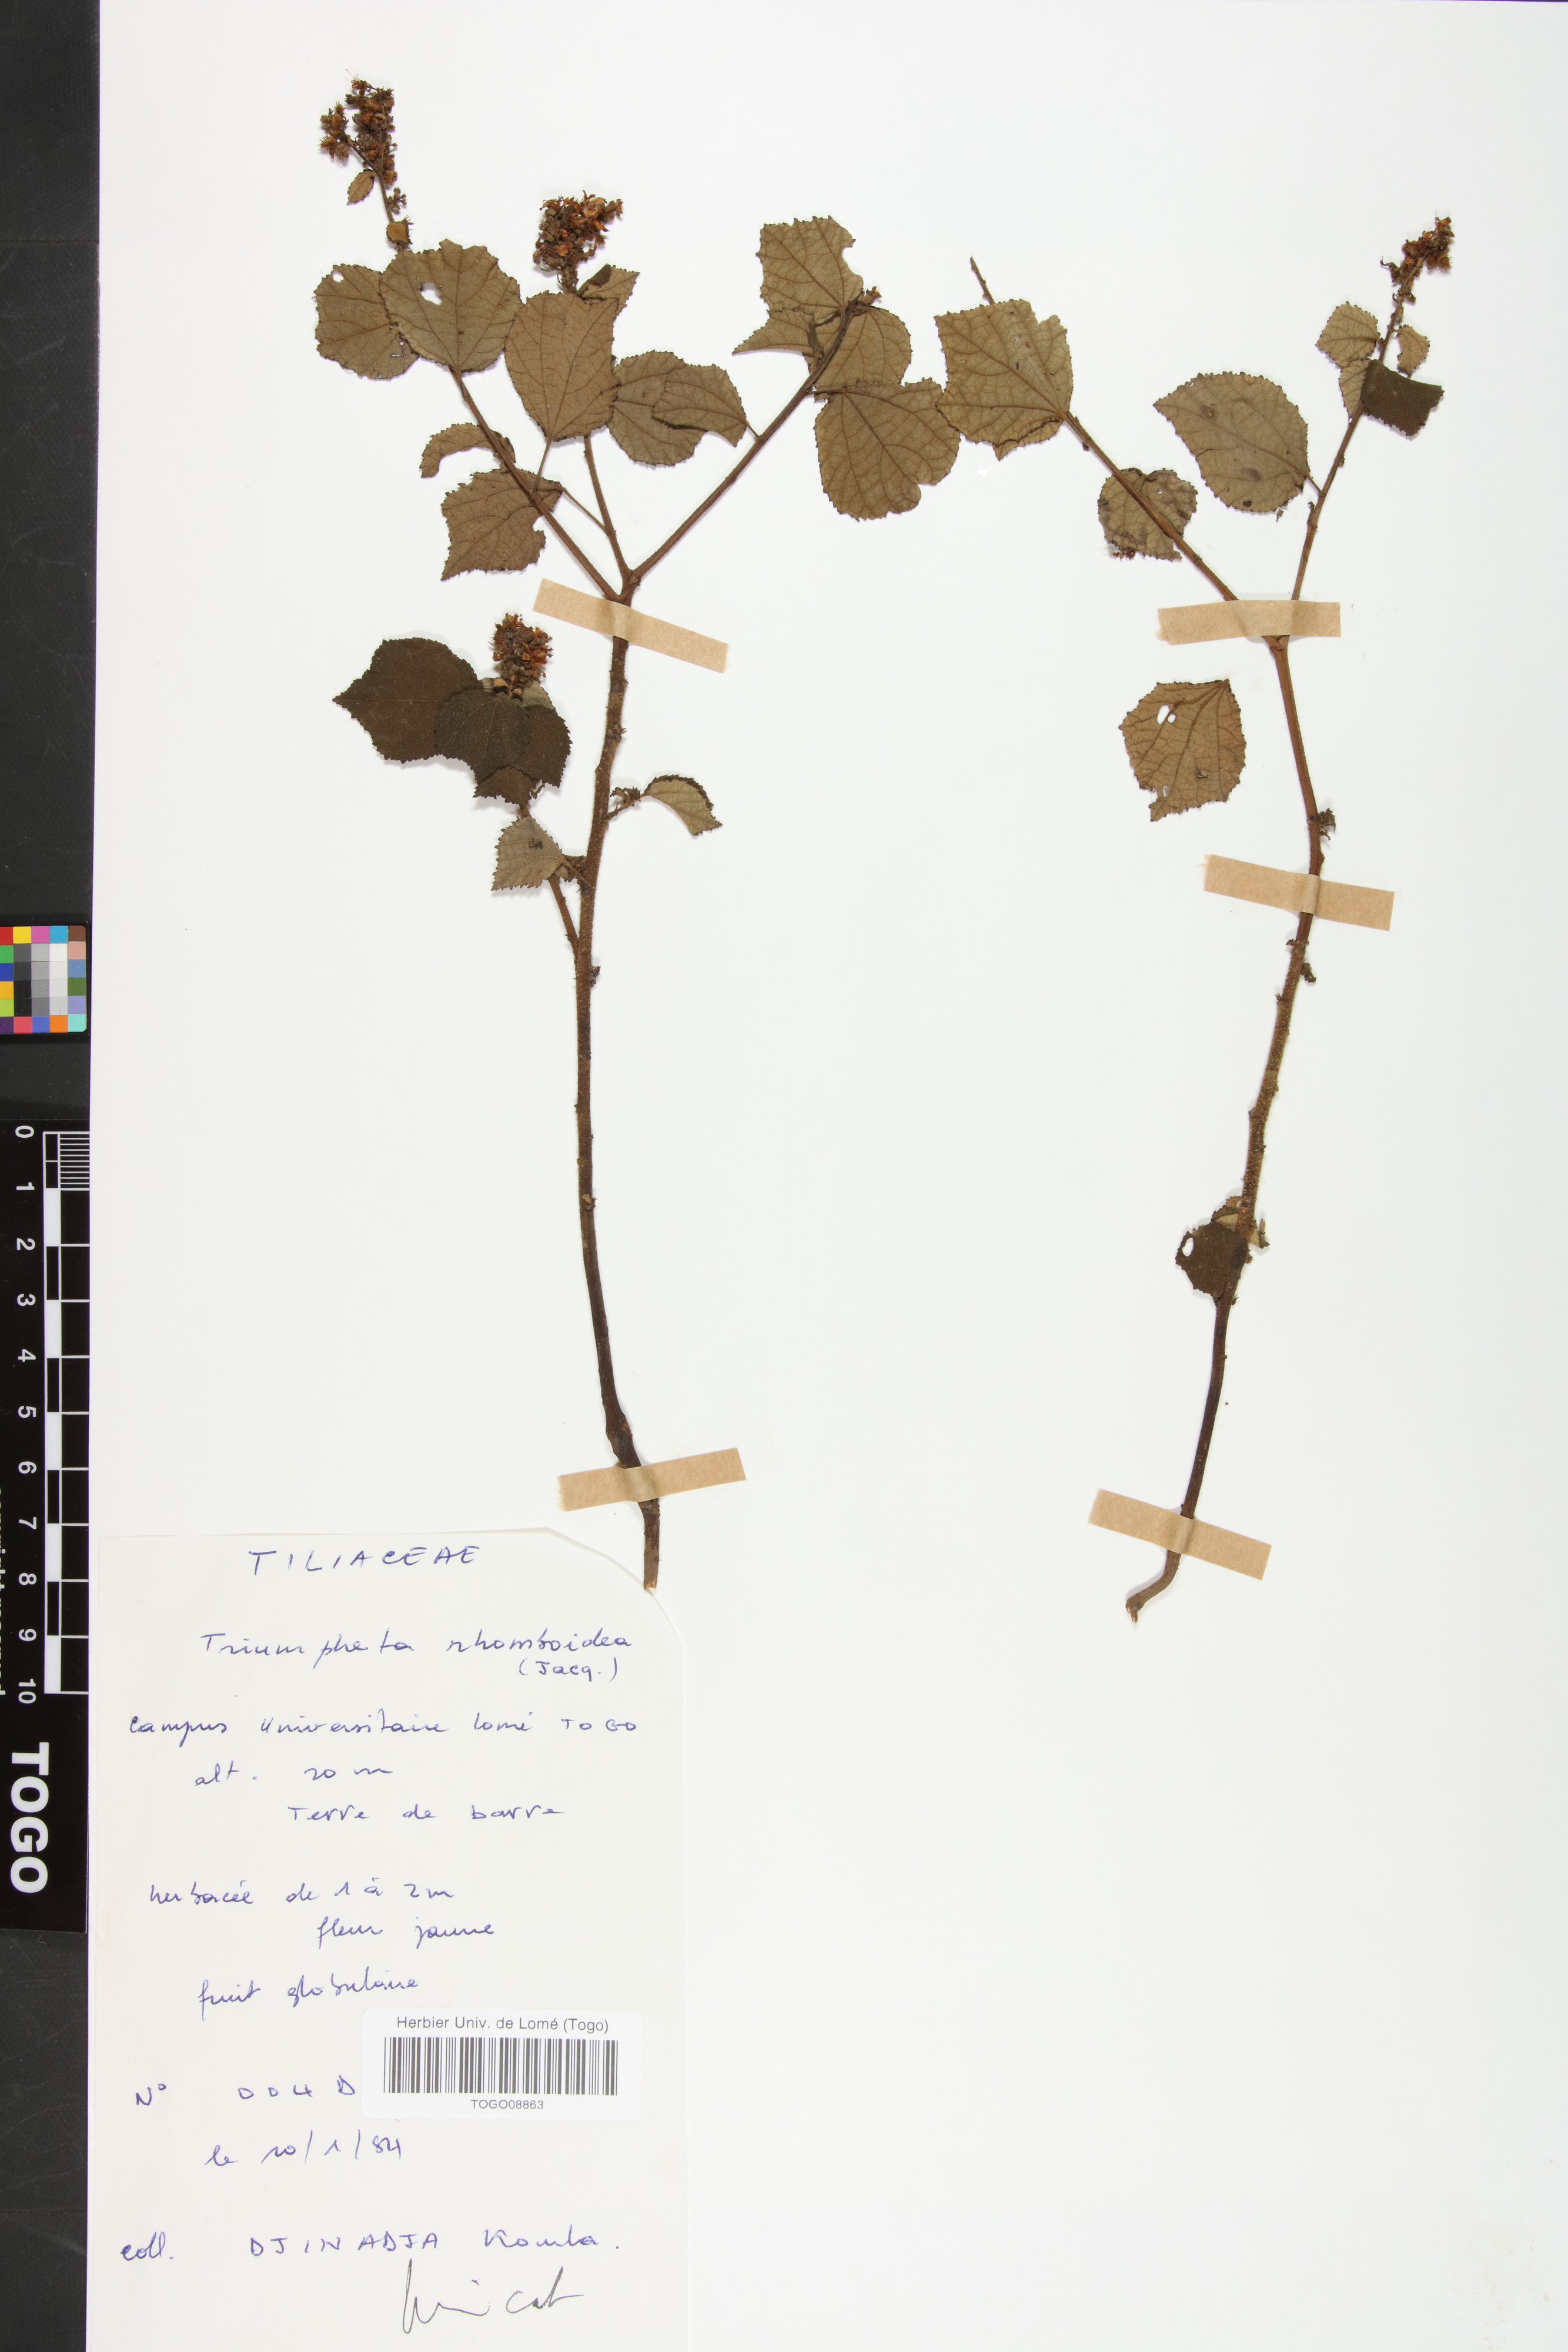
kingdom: Plantae
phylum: Tracheophyta
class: Magnoliopsida
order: Malvales
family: Malvaceae
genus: Triumfetta
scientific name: Triumfetta rhomboidea
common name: Diamond burbark
